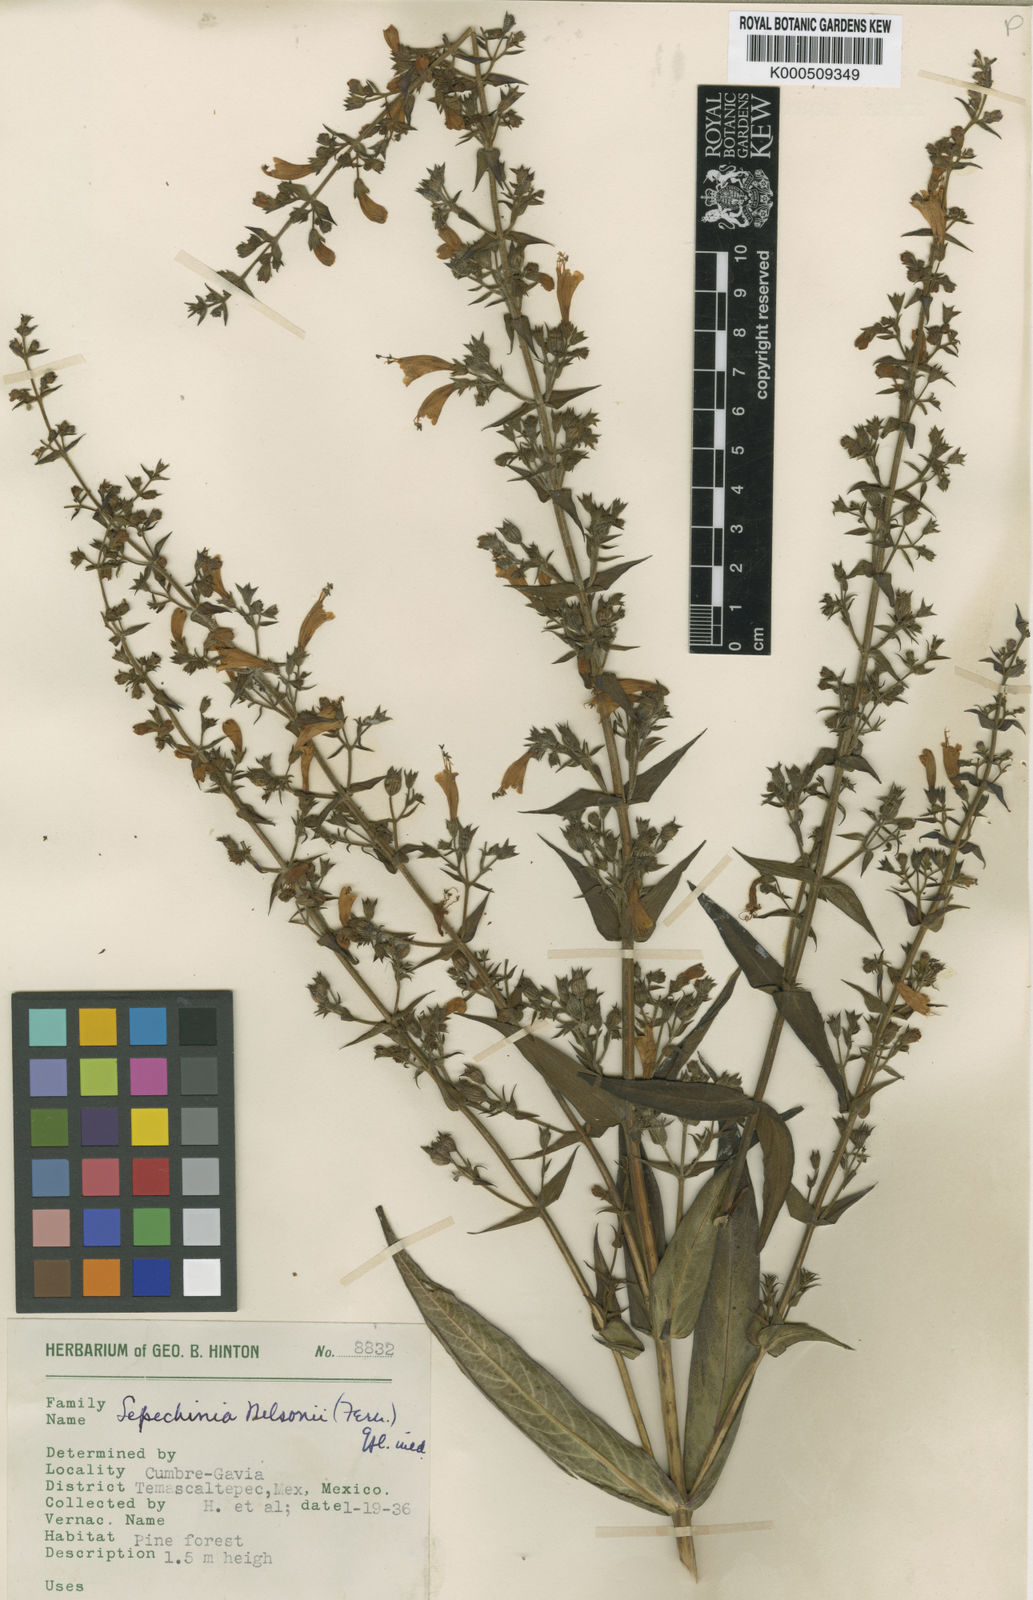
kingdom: Plantae
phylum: Tracheophyta
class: Magnoliopsida
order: Lamiales
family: Lamiaceae
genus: Lepechinia
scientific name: Lepechinia nelsonii
